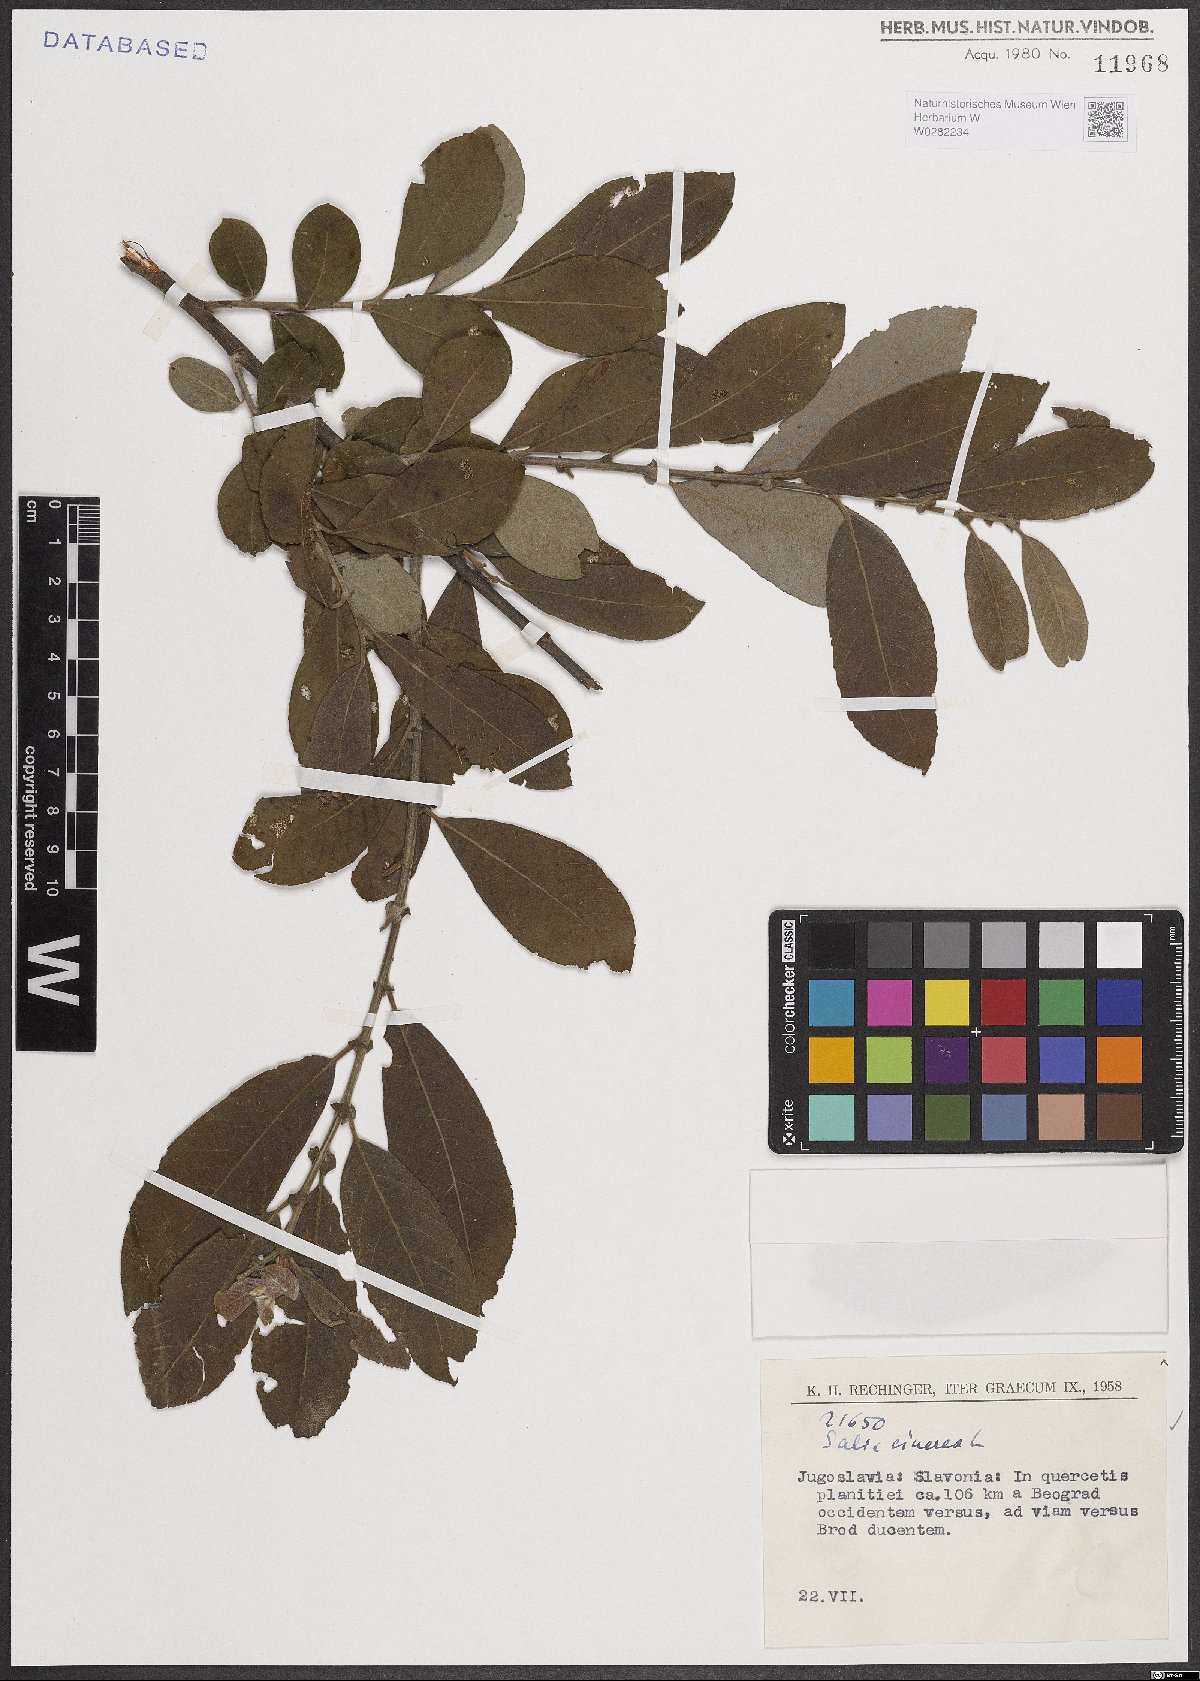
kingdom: Plantae
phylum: Tracheophyta
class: Magnoliopsida
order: Malpighiales
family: Salicaceae
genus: Salix
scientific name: Salix cinerea
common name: Common sallow
